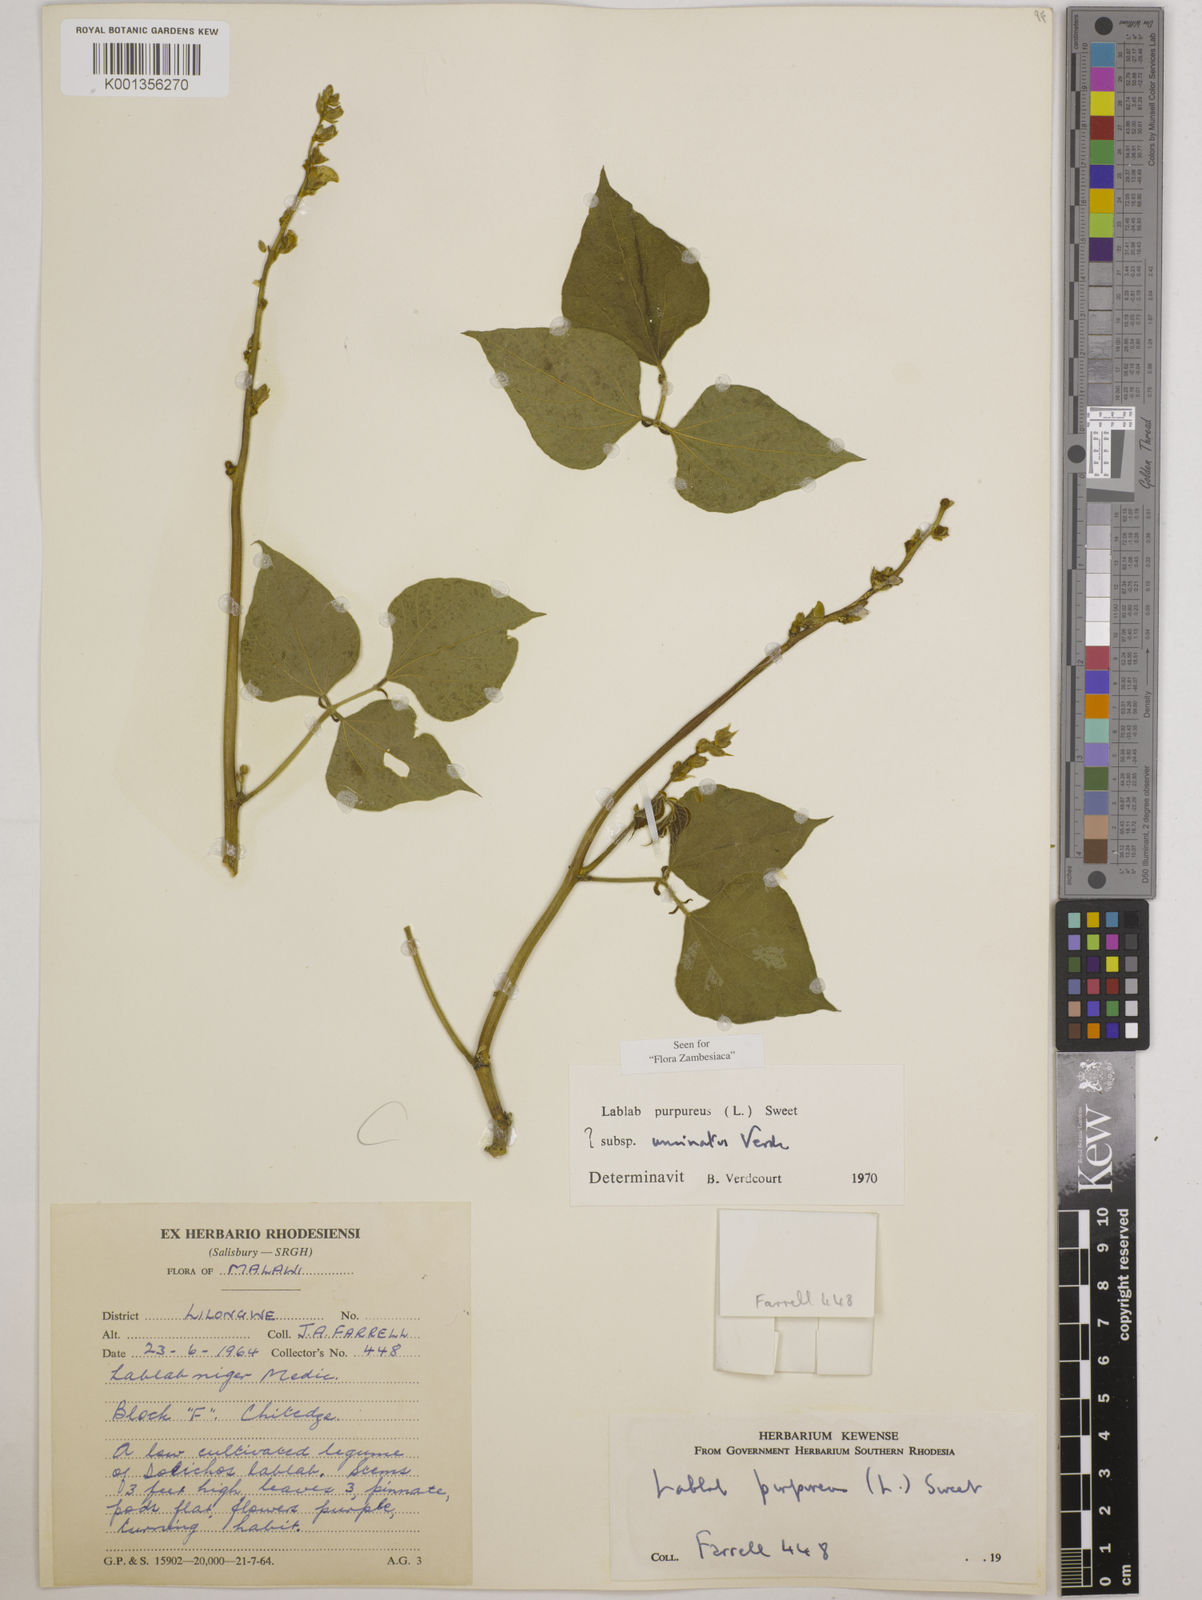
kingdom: Plantae
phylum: Tracheophyta
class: Magnoliopsida
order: Fabales
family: Fabaceae
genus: Lablab
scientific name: Lablab purpureus
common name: Lablab-bean
